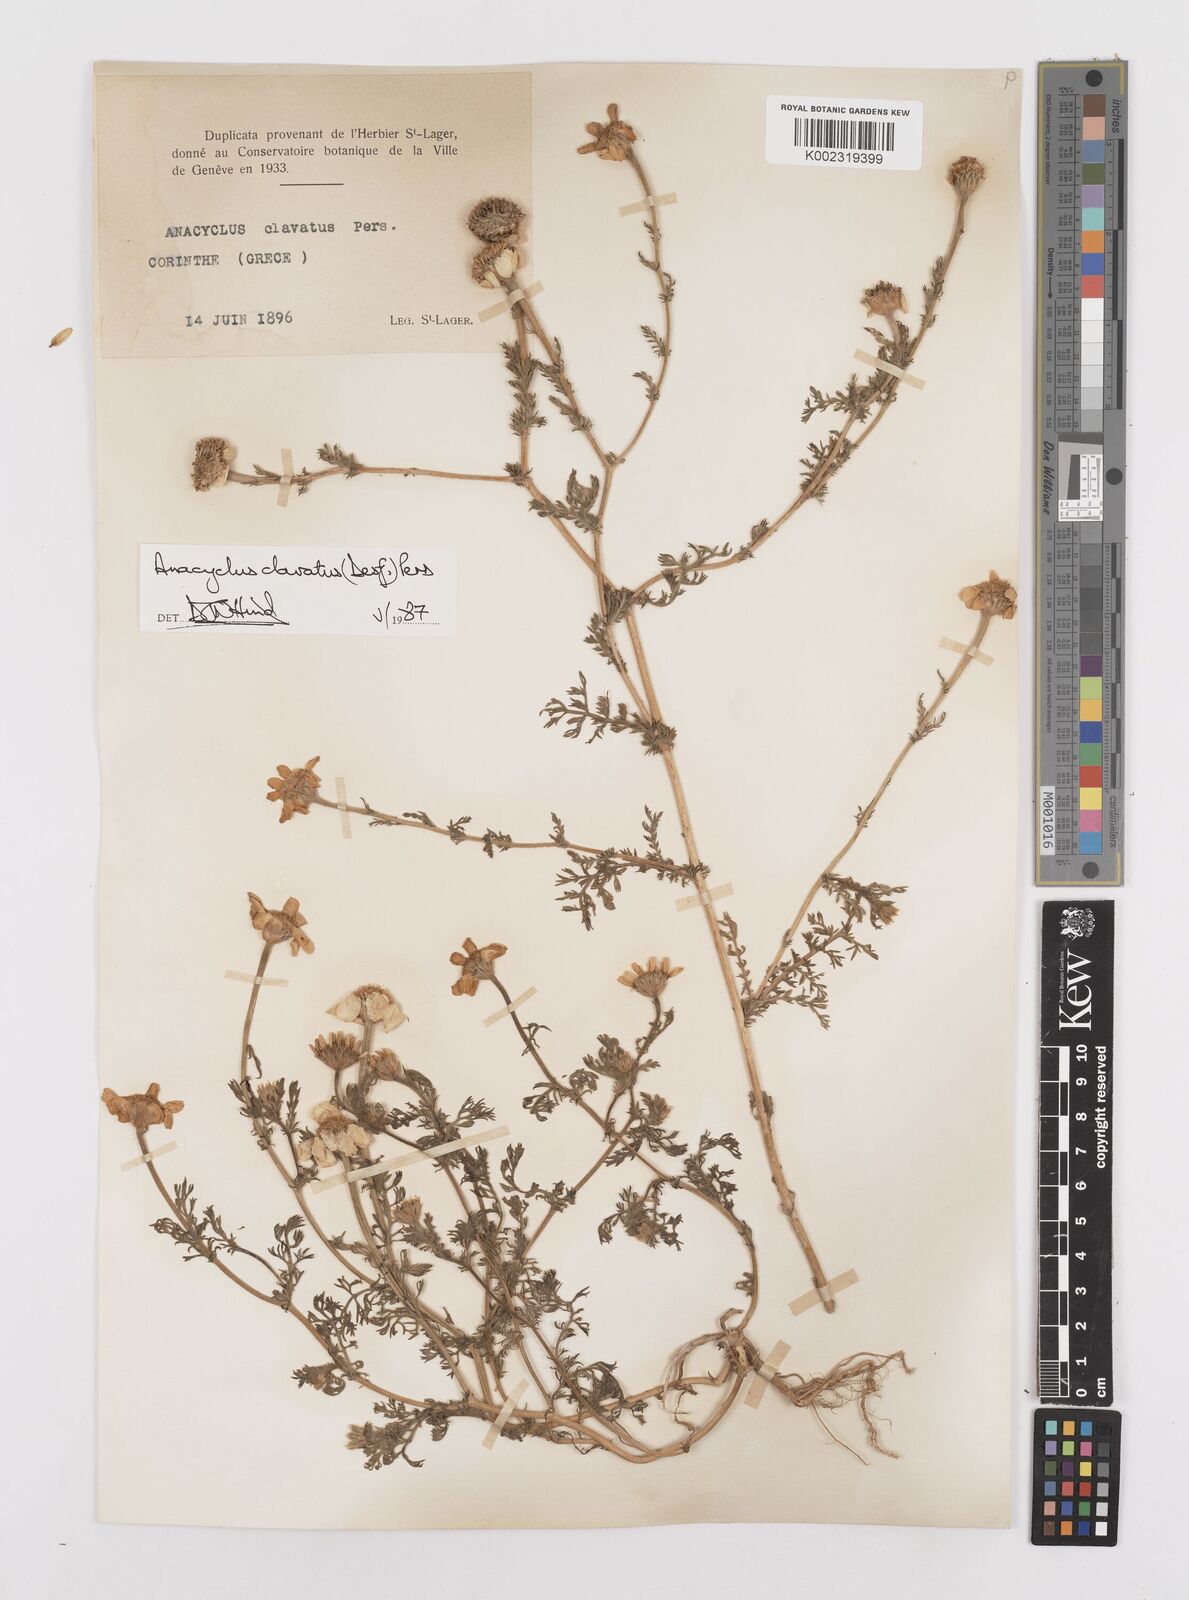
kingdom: Plantae
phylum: Tracheophyta
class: Magnoliopsida
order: Asterales
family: Asteraceae
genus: Anacyclus
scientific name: Anacyclus clavatus
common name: Whitebuttons
